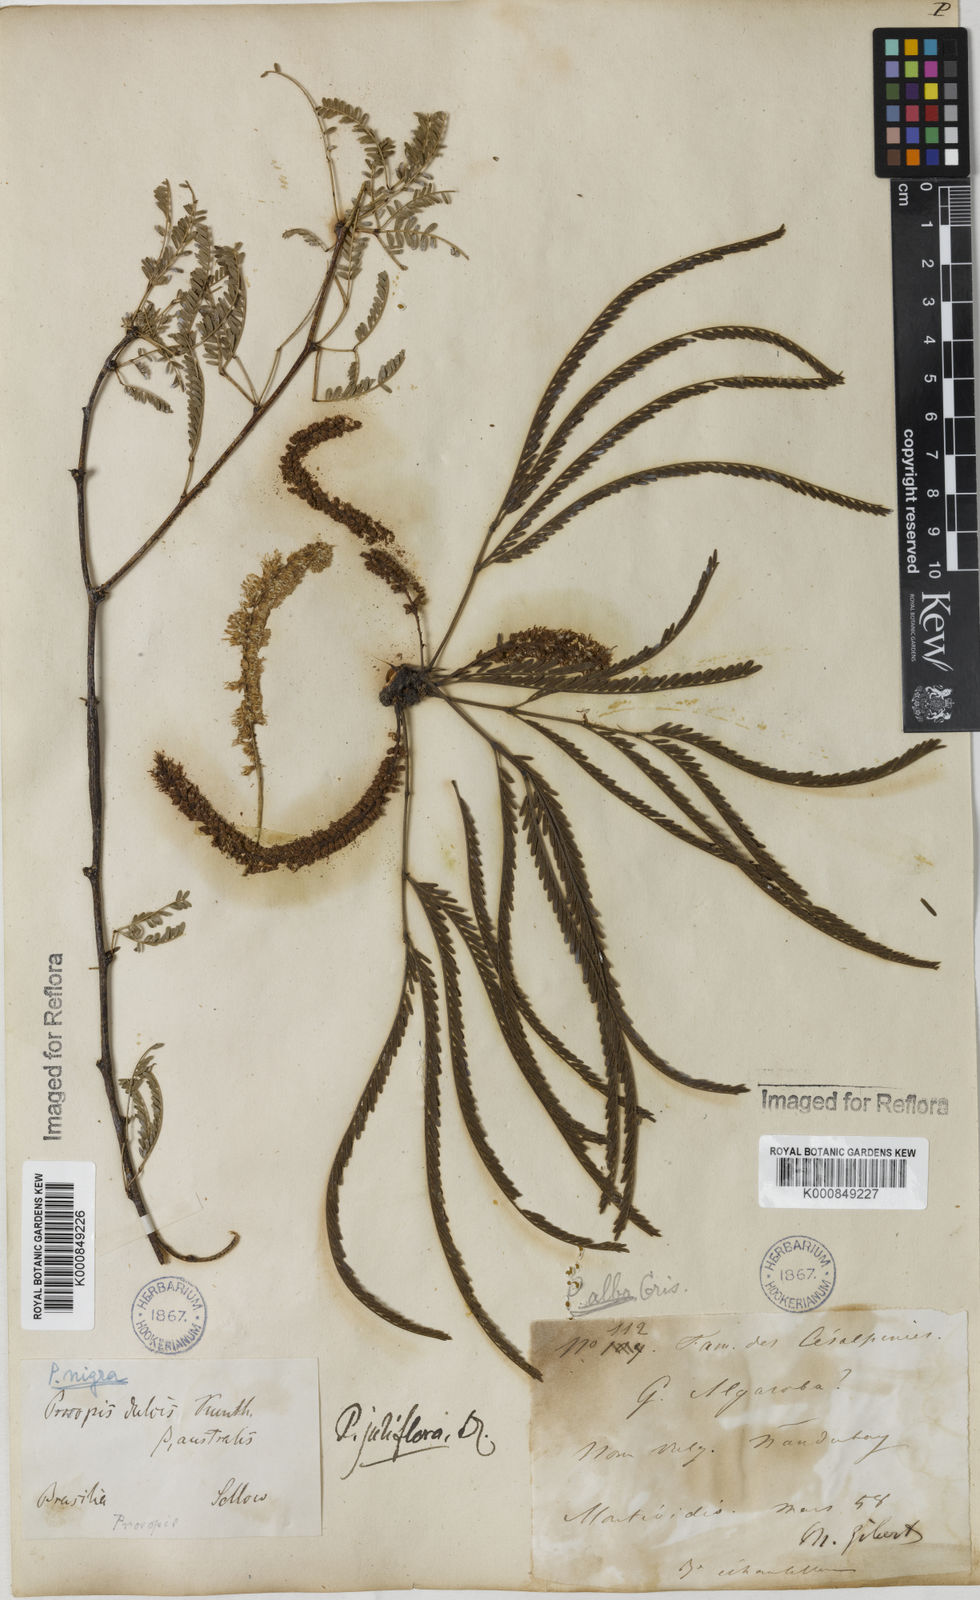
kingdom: Plantae
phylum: Tracheophyta
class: Magnoliopsida
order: Fabales
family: Fabaceae
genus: Prosopis
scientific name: Prosopis juliflora
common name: Mesquite
